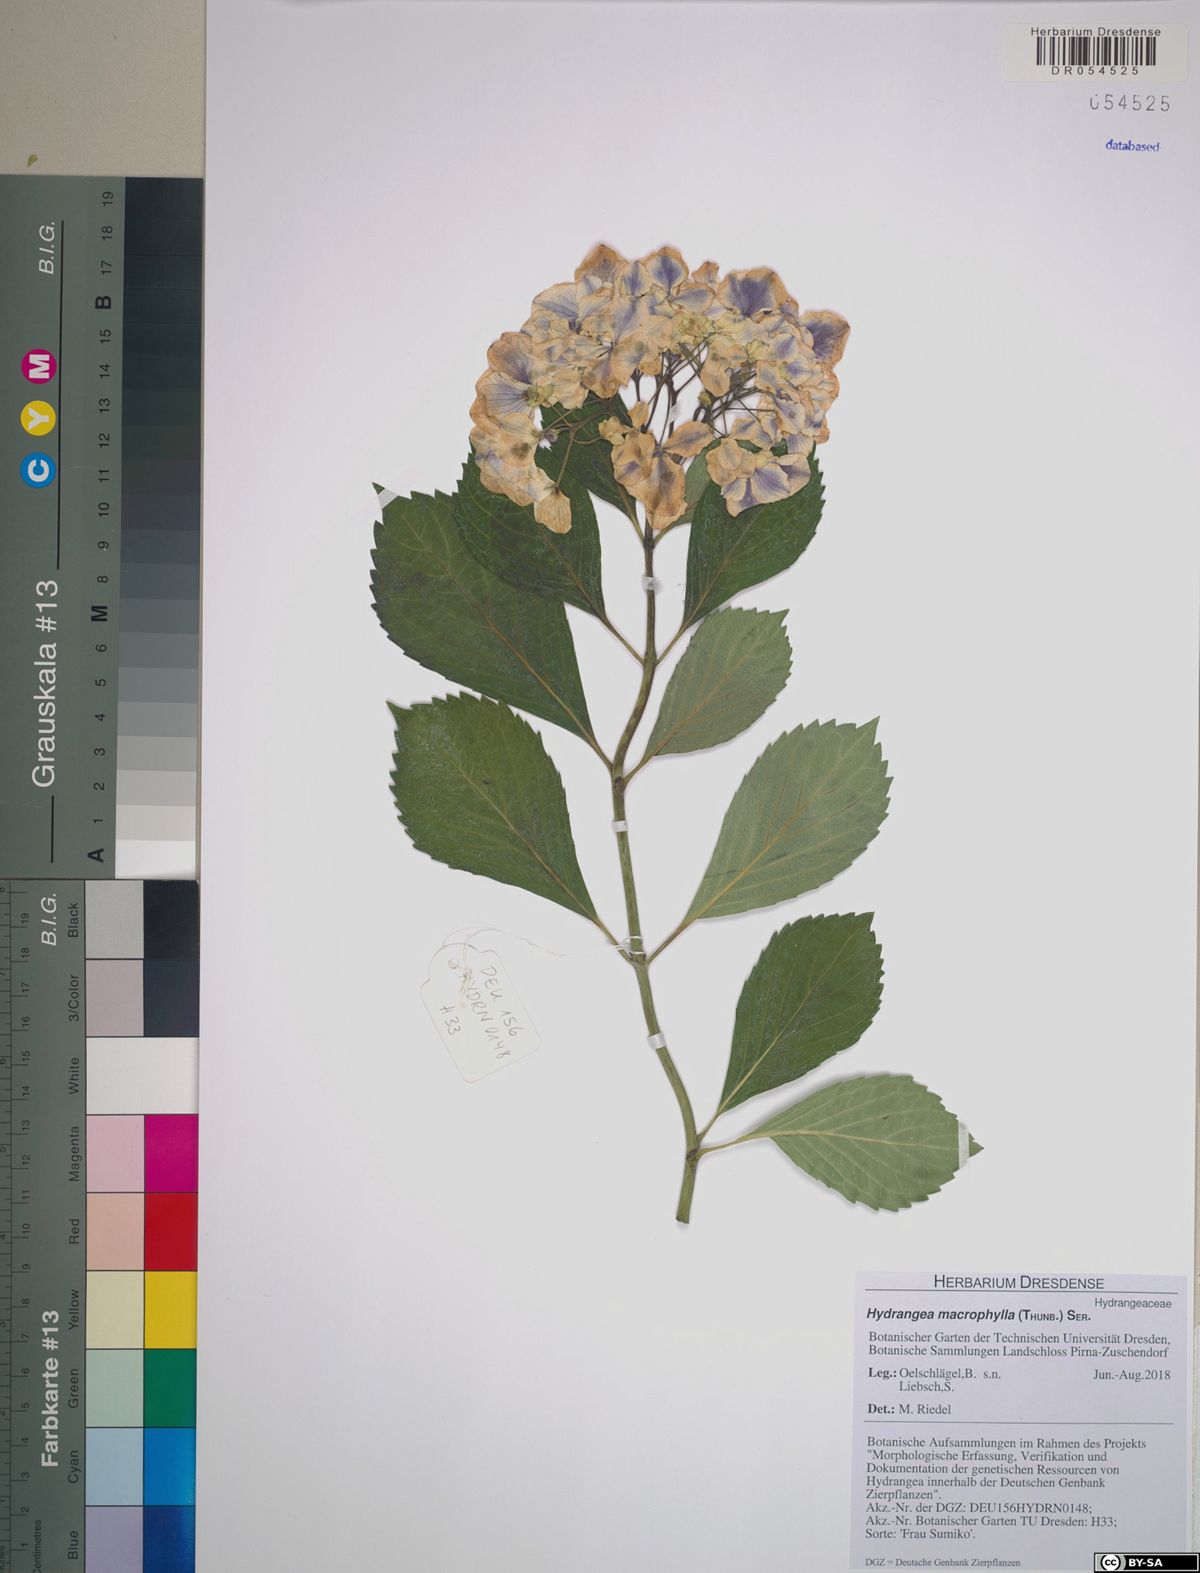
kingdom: Plantae
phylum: Tracheophyta
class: Magnoliopsida
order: Cornales
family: Hydrangeaceae
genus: Hydrangea
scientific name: Hydrangea macrophylla
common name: Hydrangea
